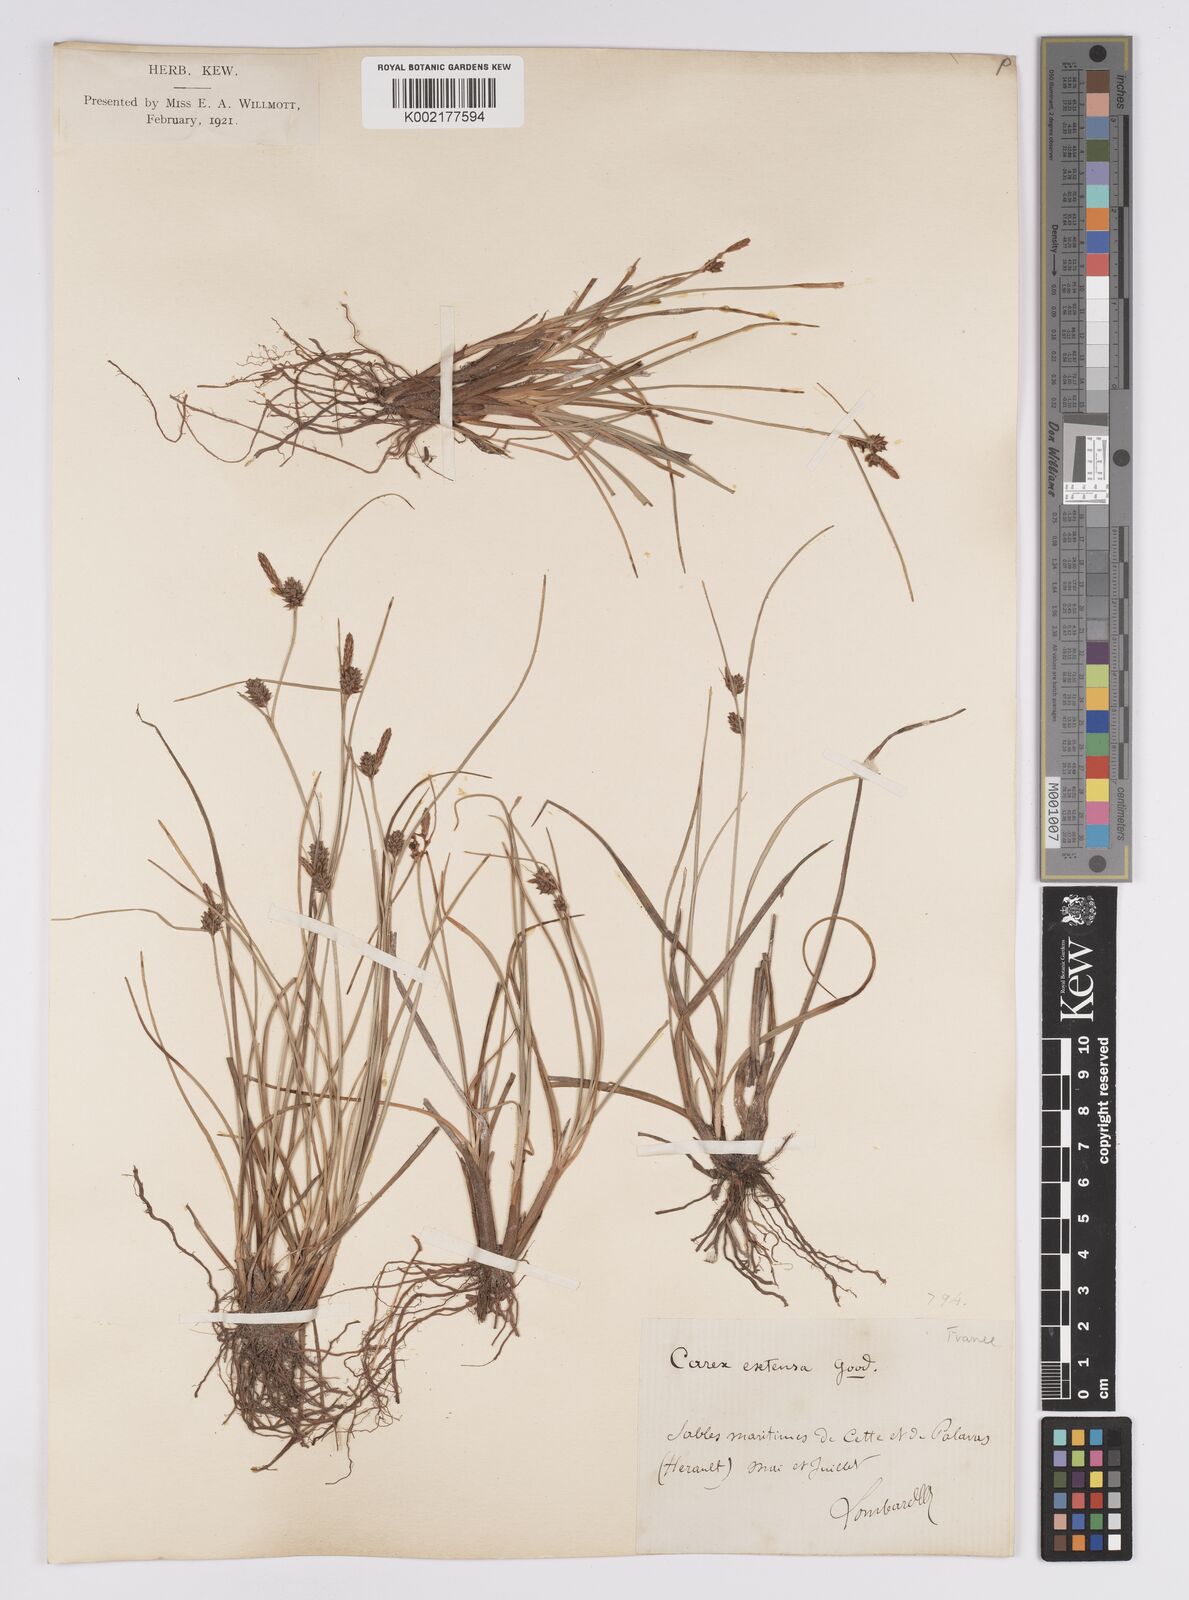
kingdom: Plantae
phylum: Tracheophyta
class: Liliopsida
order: Poales
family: Cyperaceae
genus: Carex
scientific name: Carex extensa
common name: Long-bracted sedge
